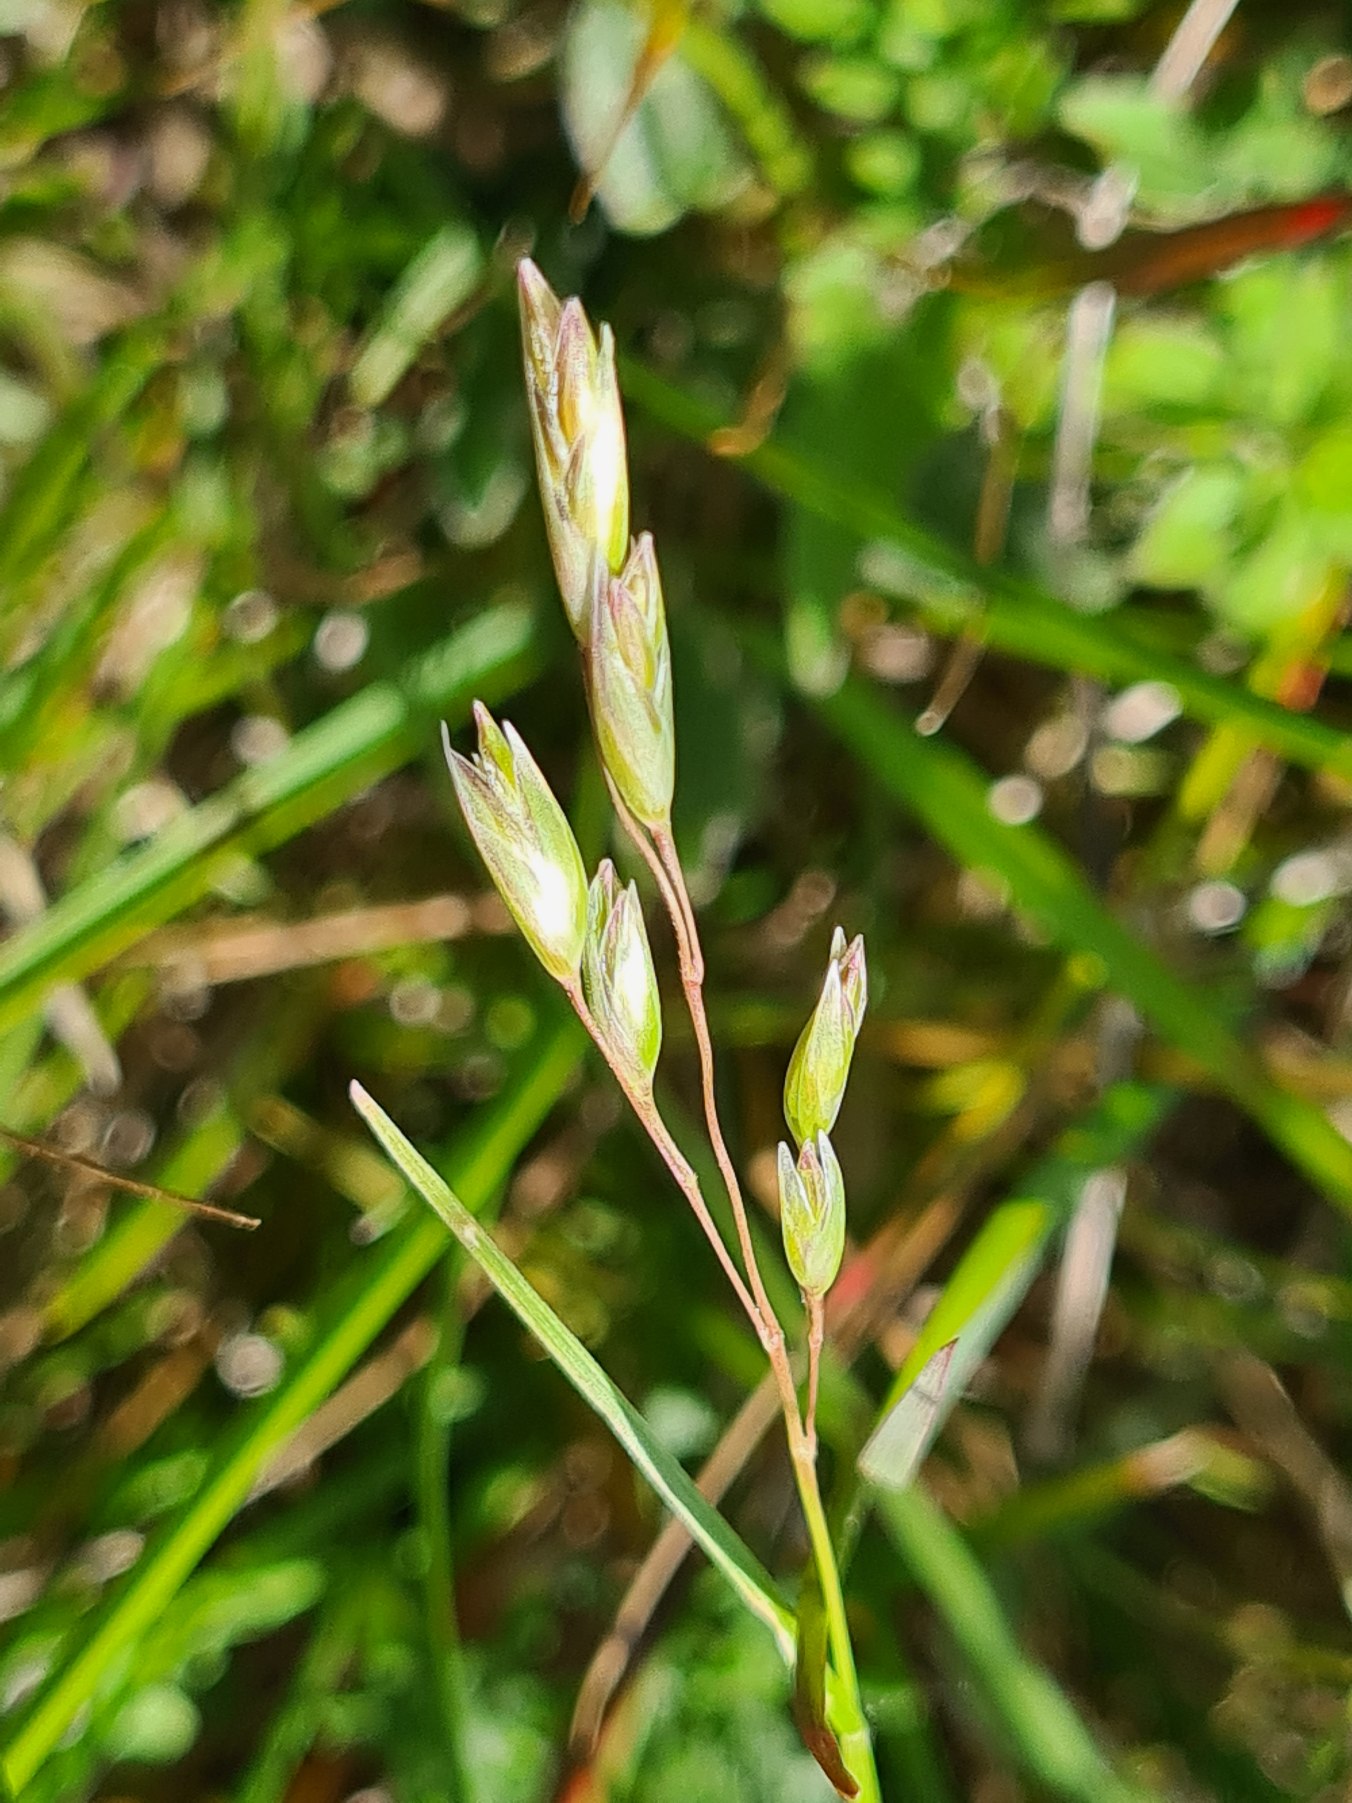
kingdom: Plantae
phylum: Tracheophyta
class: Liliopsida
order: Poales
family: Poaceae
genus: Danthonia
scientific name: Danthonia decumbens
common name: Tandbælg
